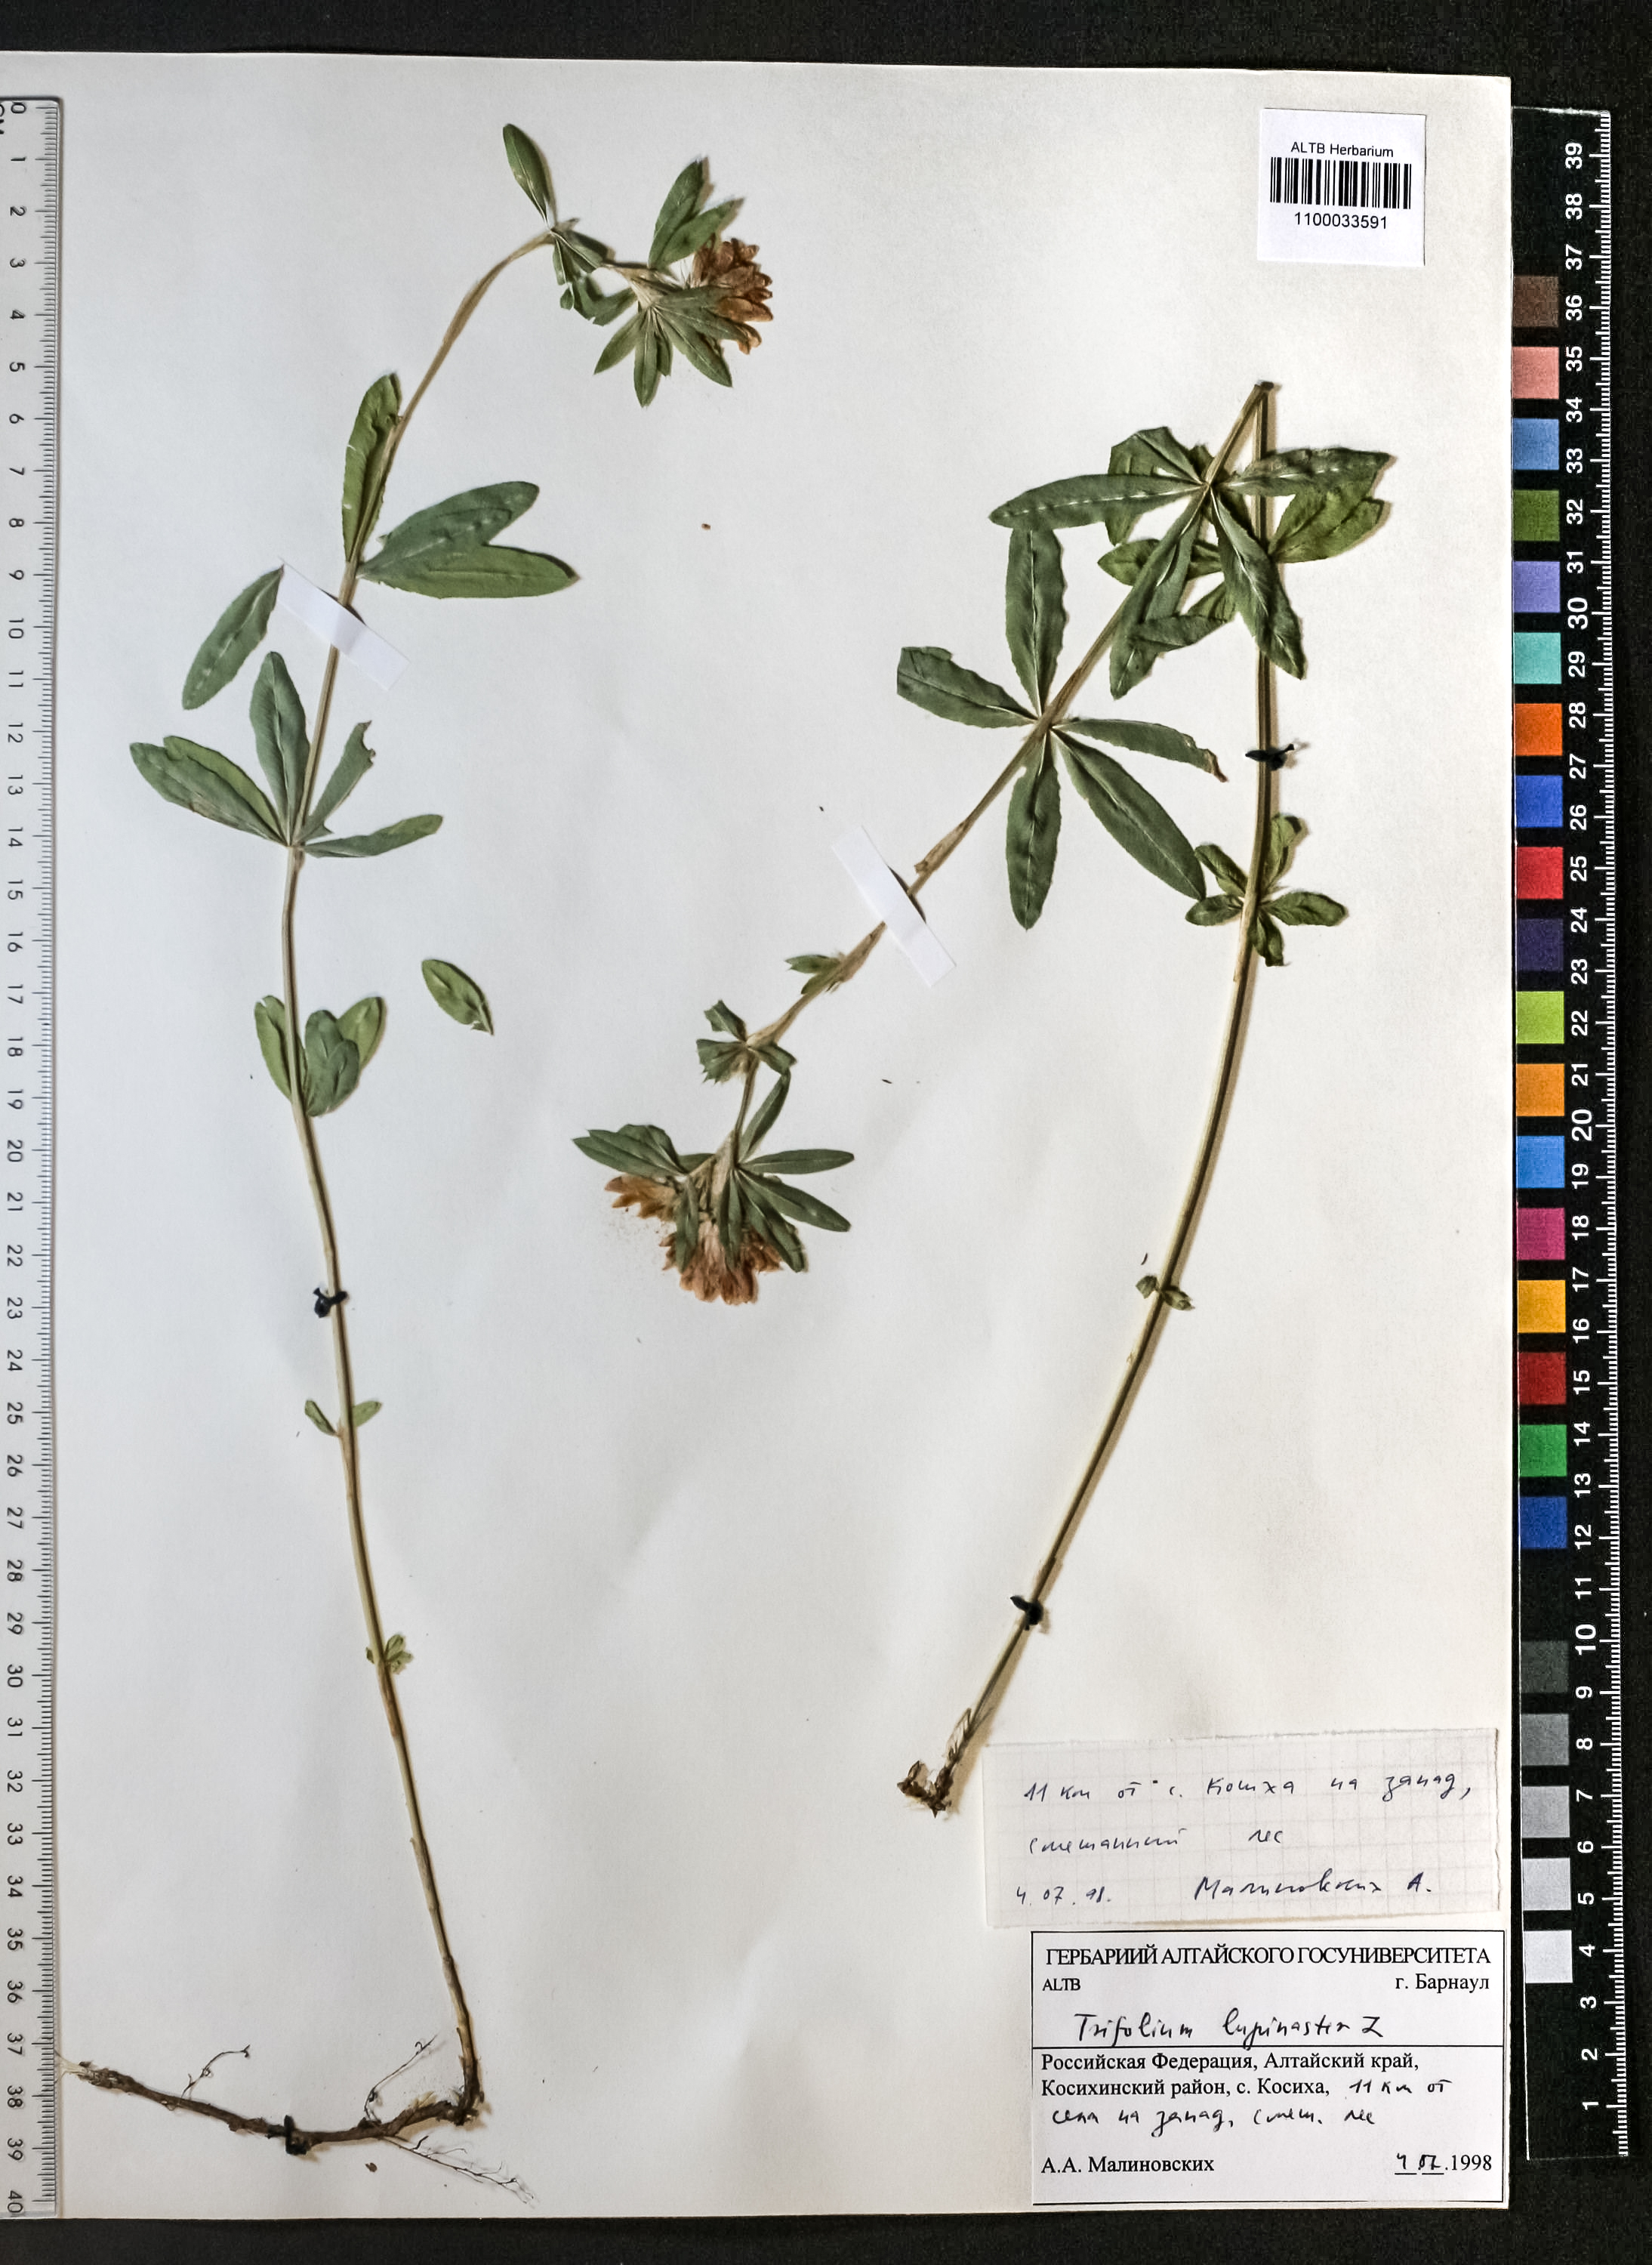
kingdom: Plantae
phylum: Tracheophyta
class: Magnoliopsida
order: Fabales
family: Fabaceae
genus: Trifolium
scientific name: Trifolium lupinaster
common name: Lupine clover
